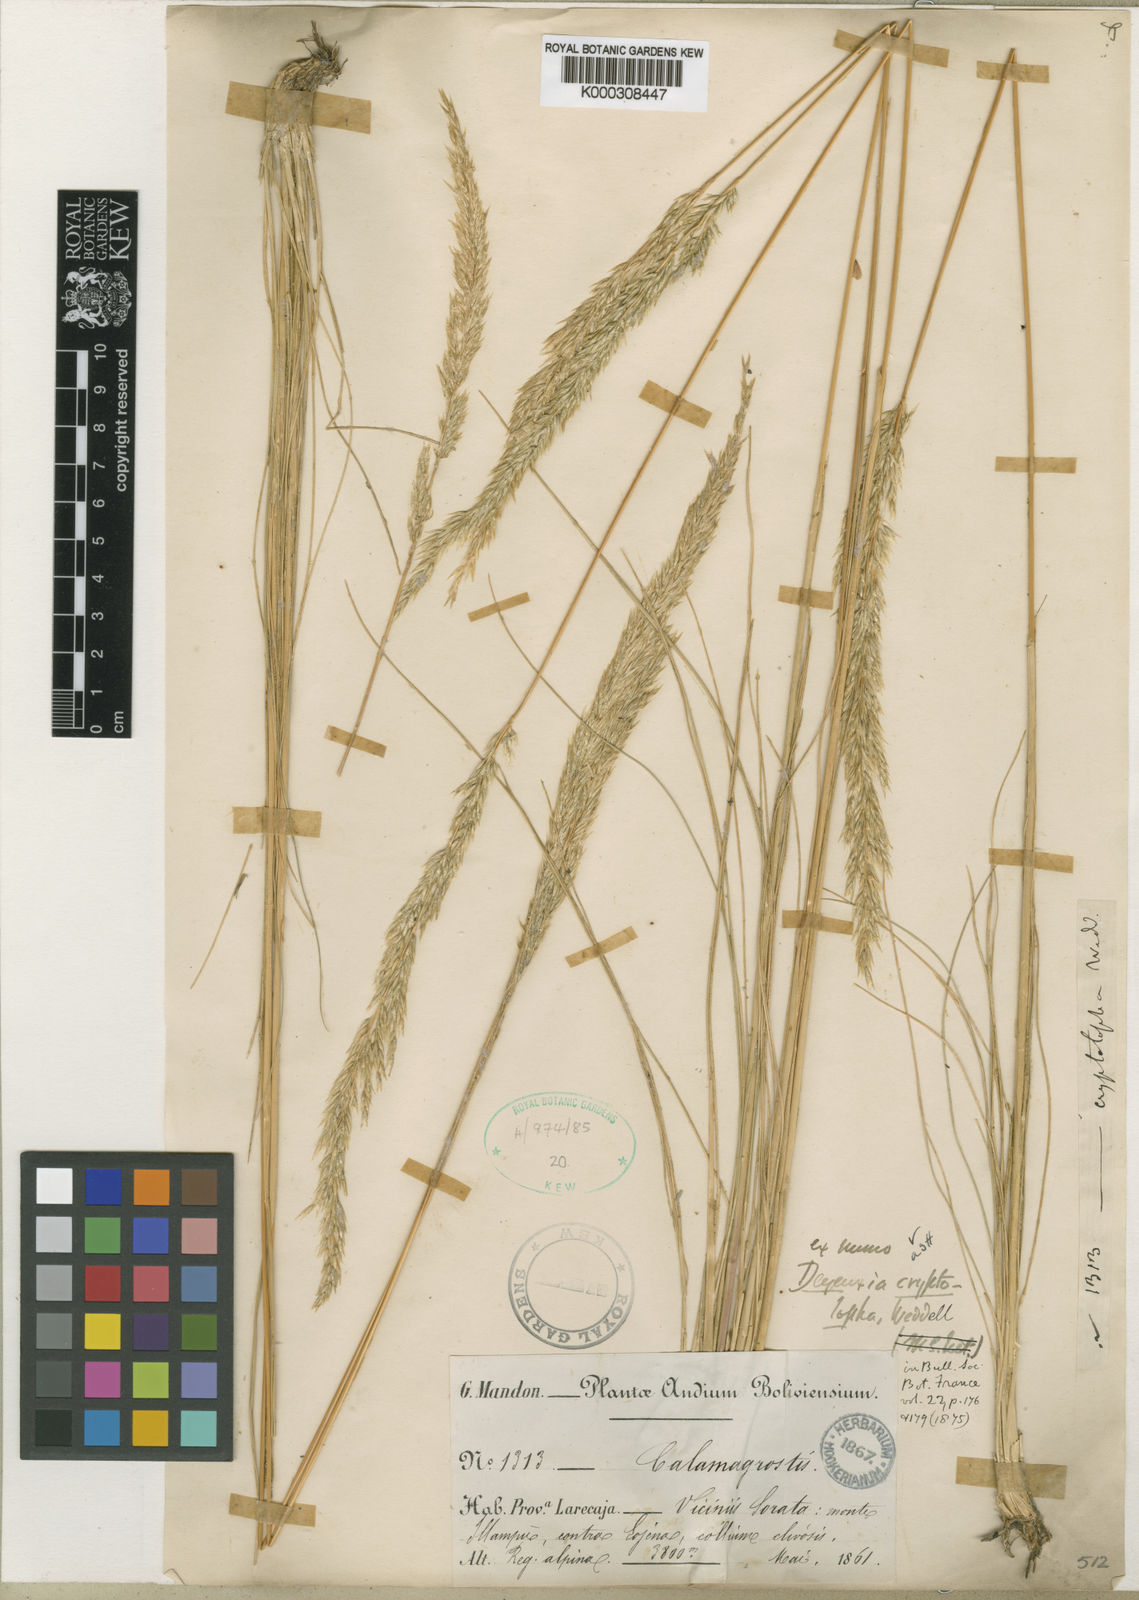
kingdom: Plantae
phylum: Tracheophyta
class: Liliopsida
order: Poales
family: Poaceae
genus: Cinnagrostis
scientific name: Cinnagrostis cryptolopha
